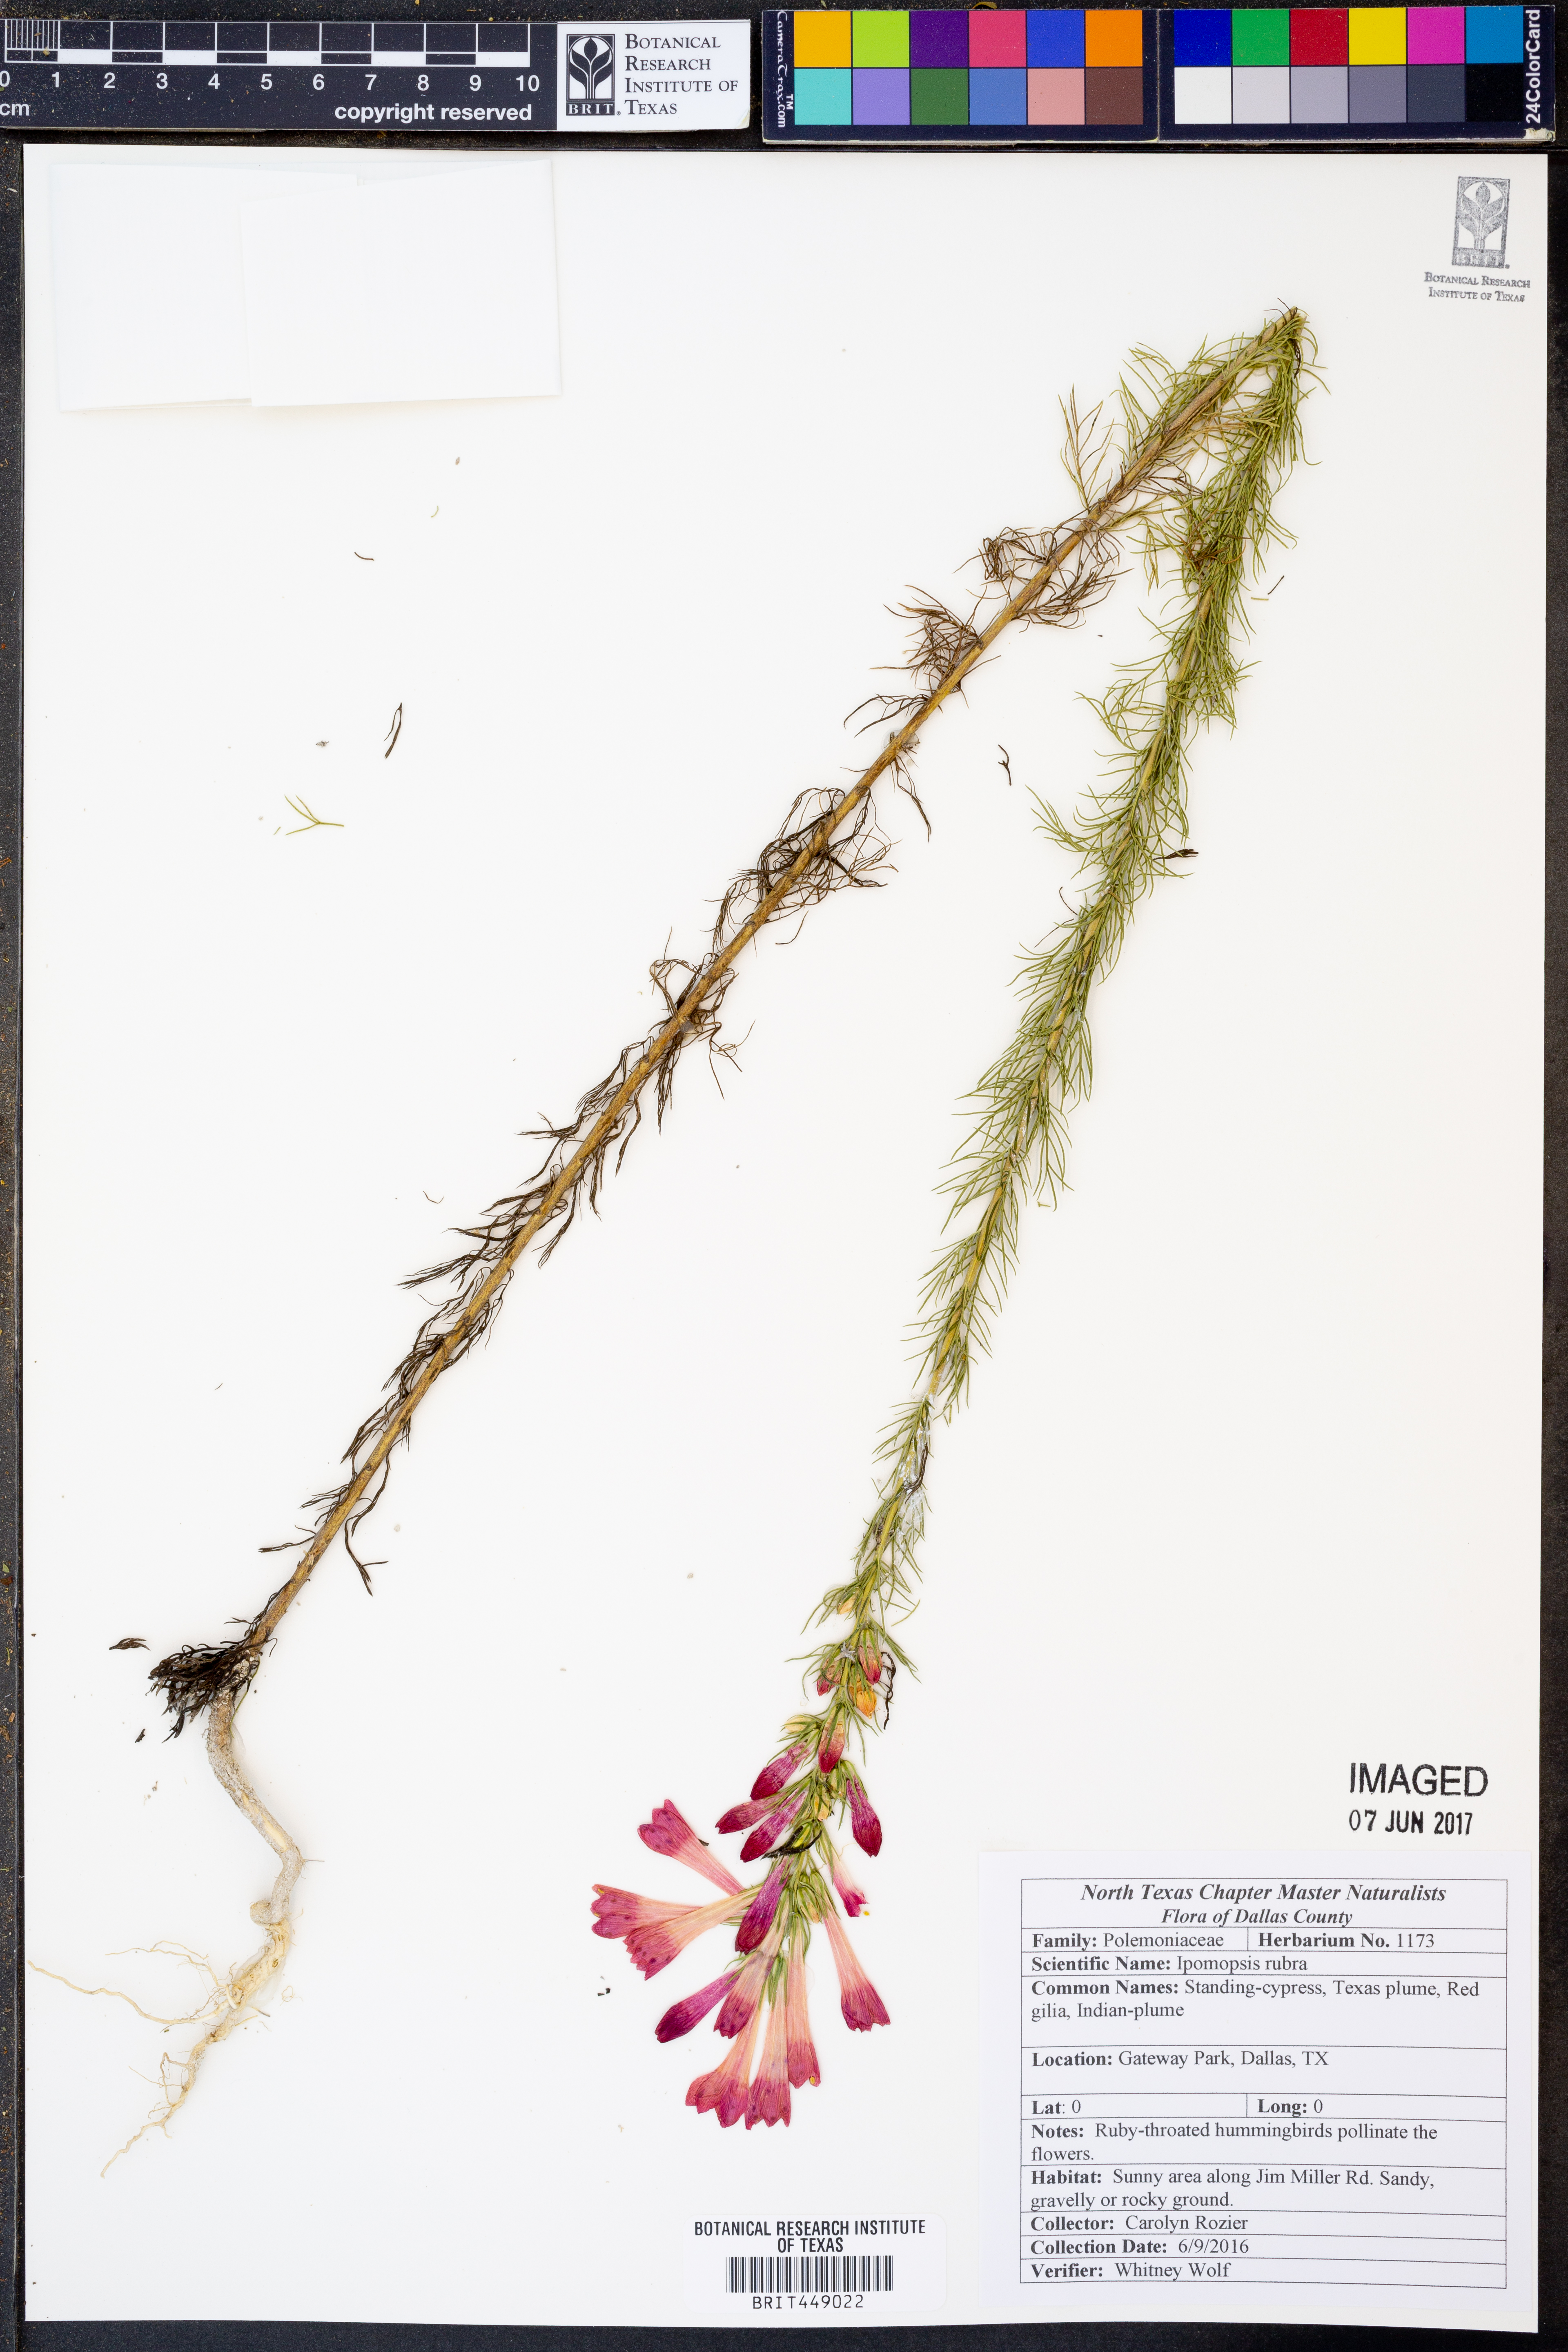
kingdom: Plantae
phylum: Tracheophyta
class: Magnoliopsida
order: Ericales
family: Polemoniaceae
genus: Ipomopsis
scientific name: Ipomopsis rubra
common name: Skyrocket
